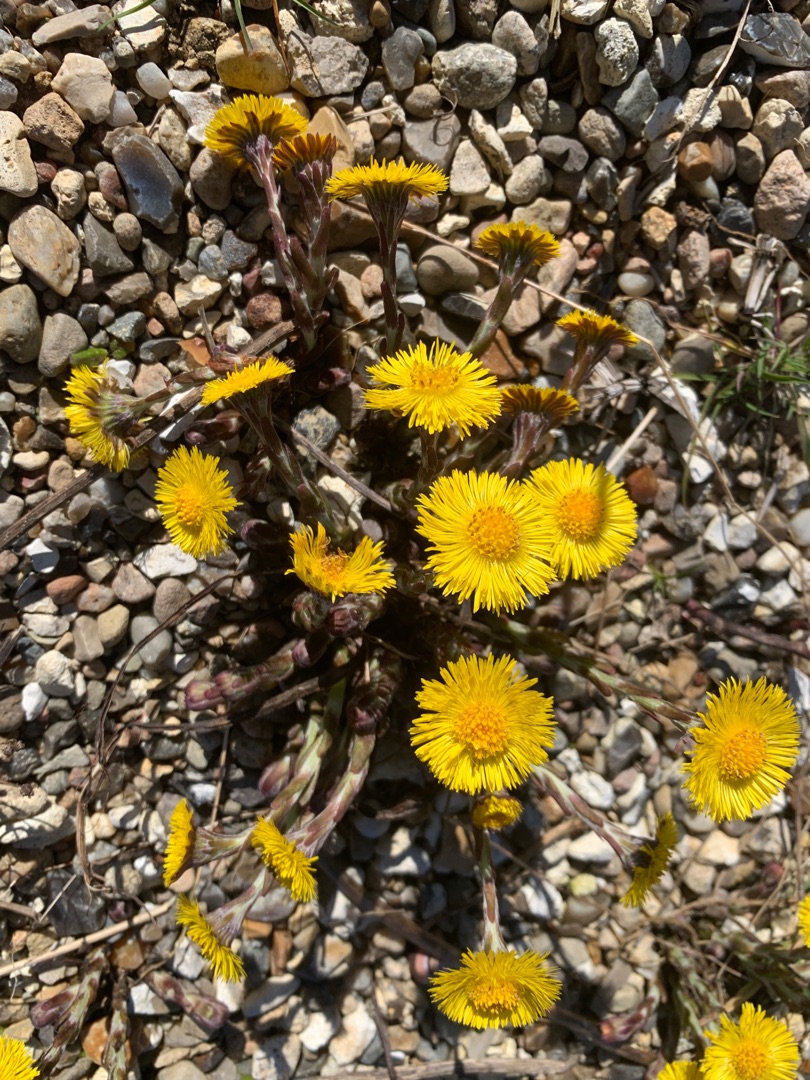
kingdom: Plantae
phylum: Tracheophyta
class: Magnoliopsida
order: Asterales
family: Asteraceae
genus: Tussilago
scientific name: Tussilago farfara
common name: Følfod
